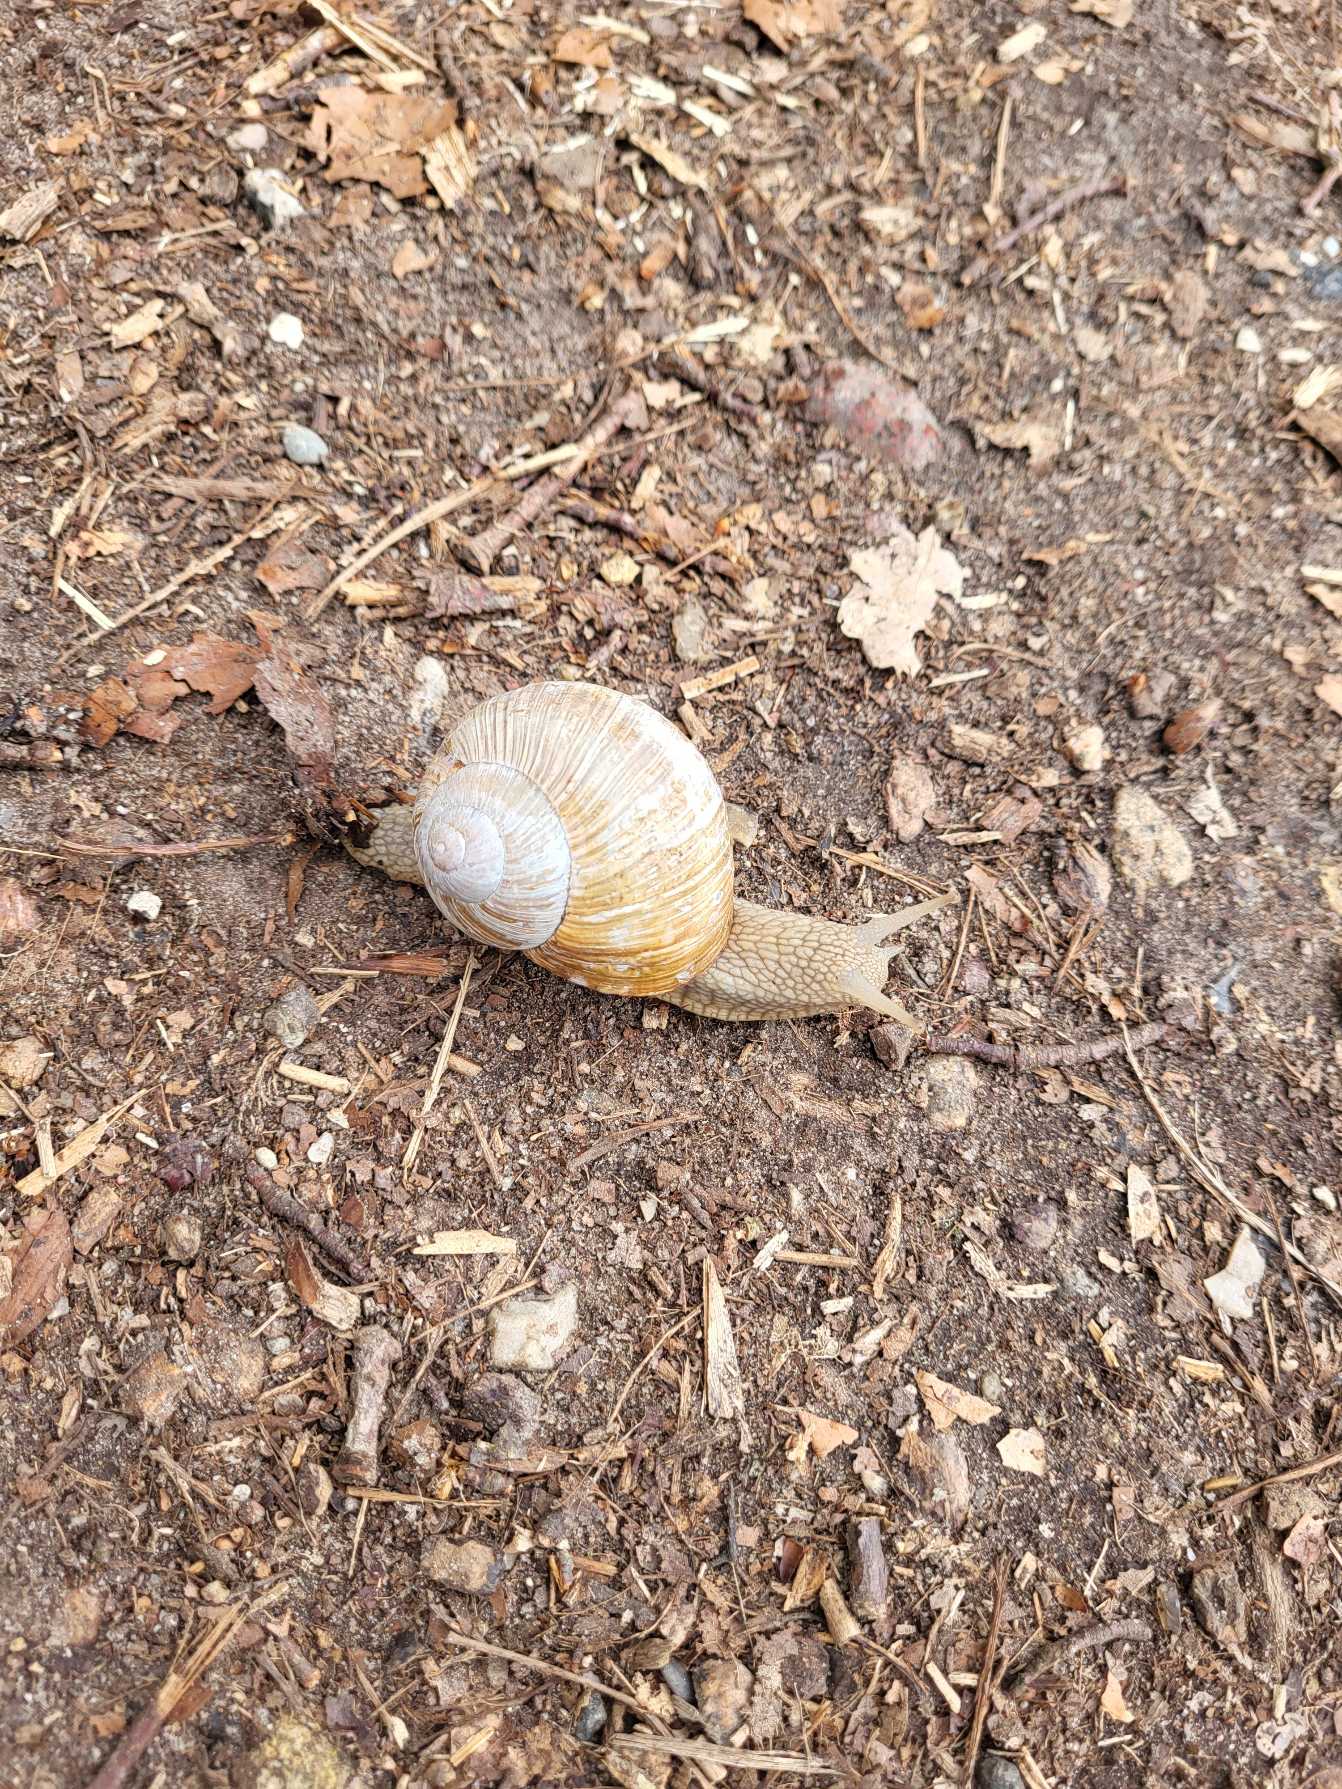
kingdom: Animalia
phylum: Mollusca
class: Gastropoda
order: Stylommatophora
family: Helicidae
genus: Helix
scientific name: Helix pomatia
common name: Vinbjergsnegl
